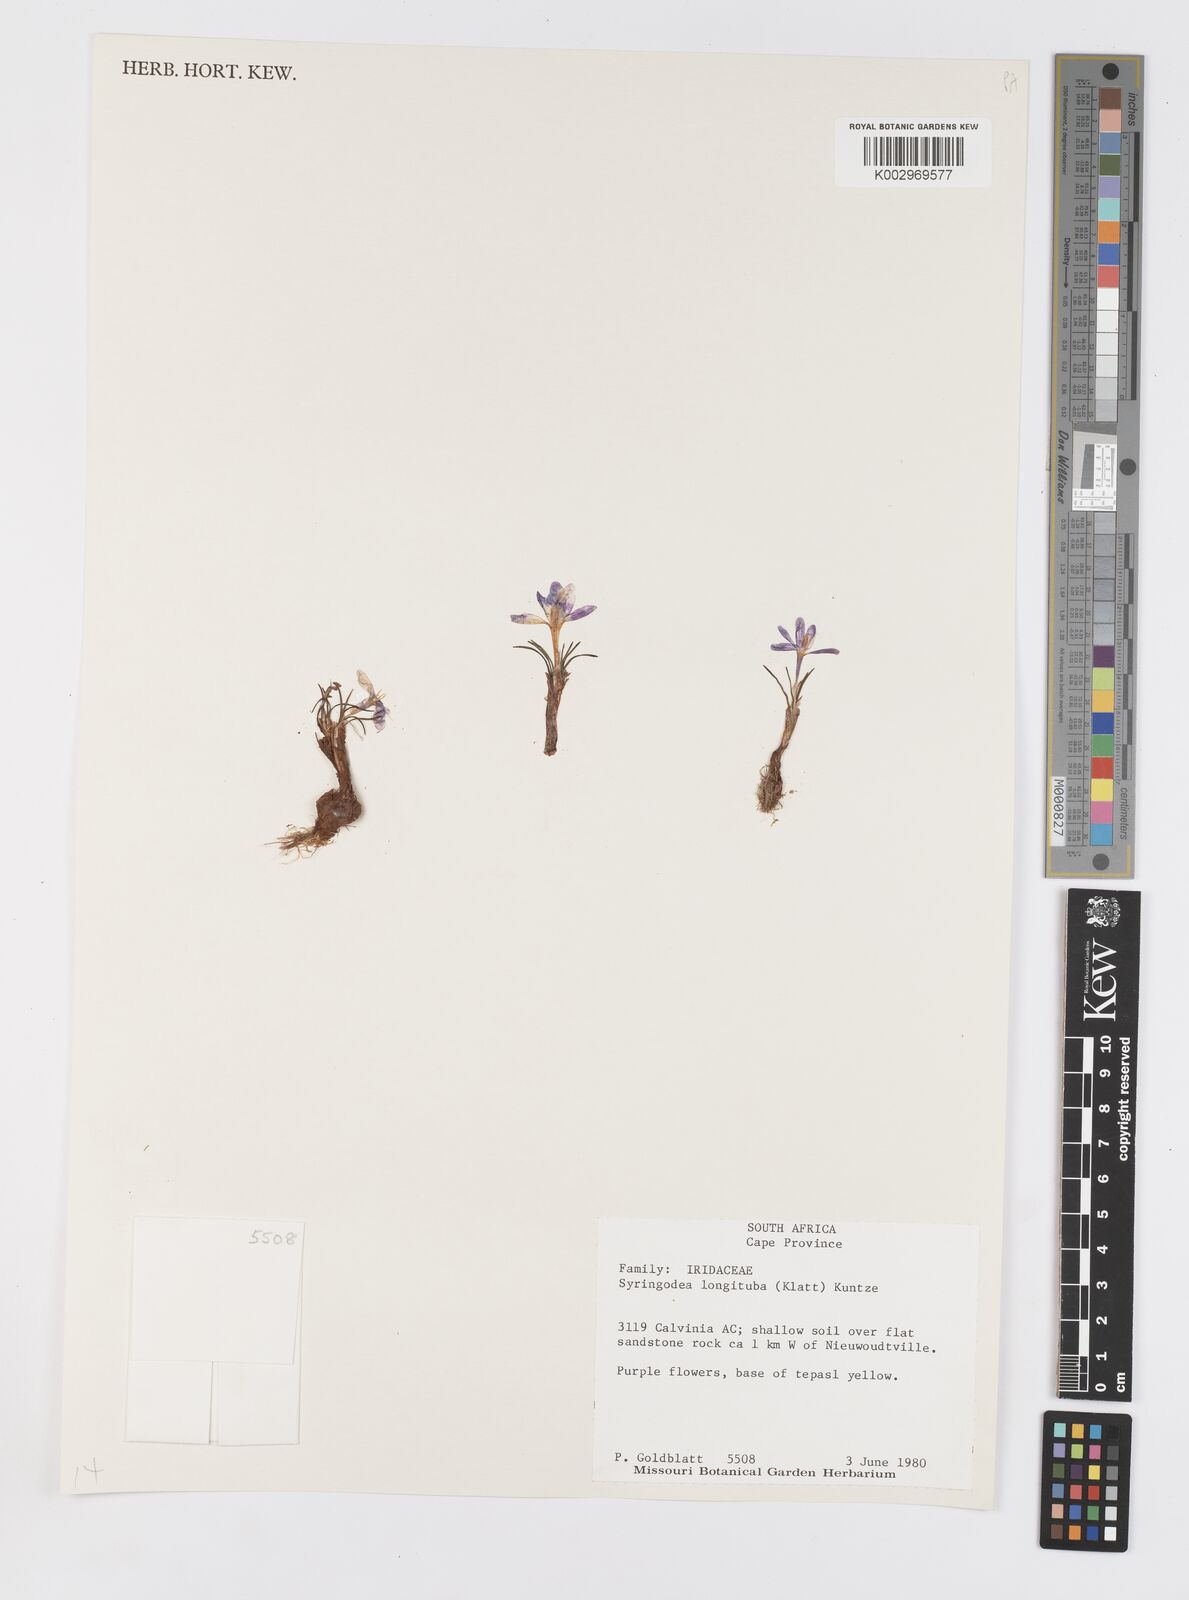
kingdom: Plantae
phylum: Tracheophyta
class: Liliopsida
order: Asparagales
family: Iridaceae
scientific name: Iridaceae
